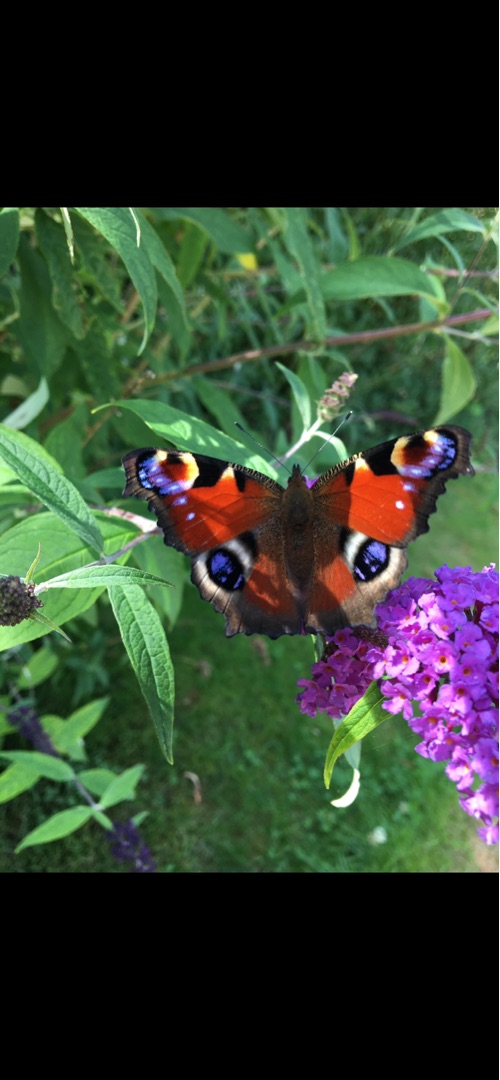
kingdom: Animalia
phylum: Arthropoda
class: Insecta
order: Lepidoptera
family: Nymphalidae
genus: Aglais
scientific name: Aglais io
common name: Dagpåfugleøje
